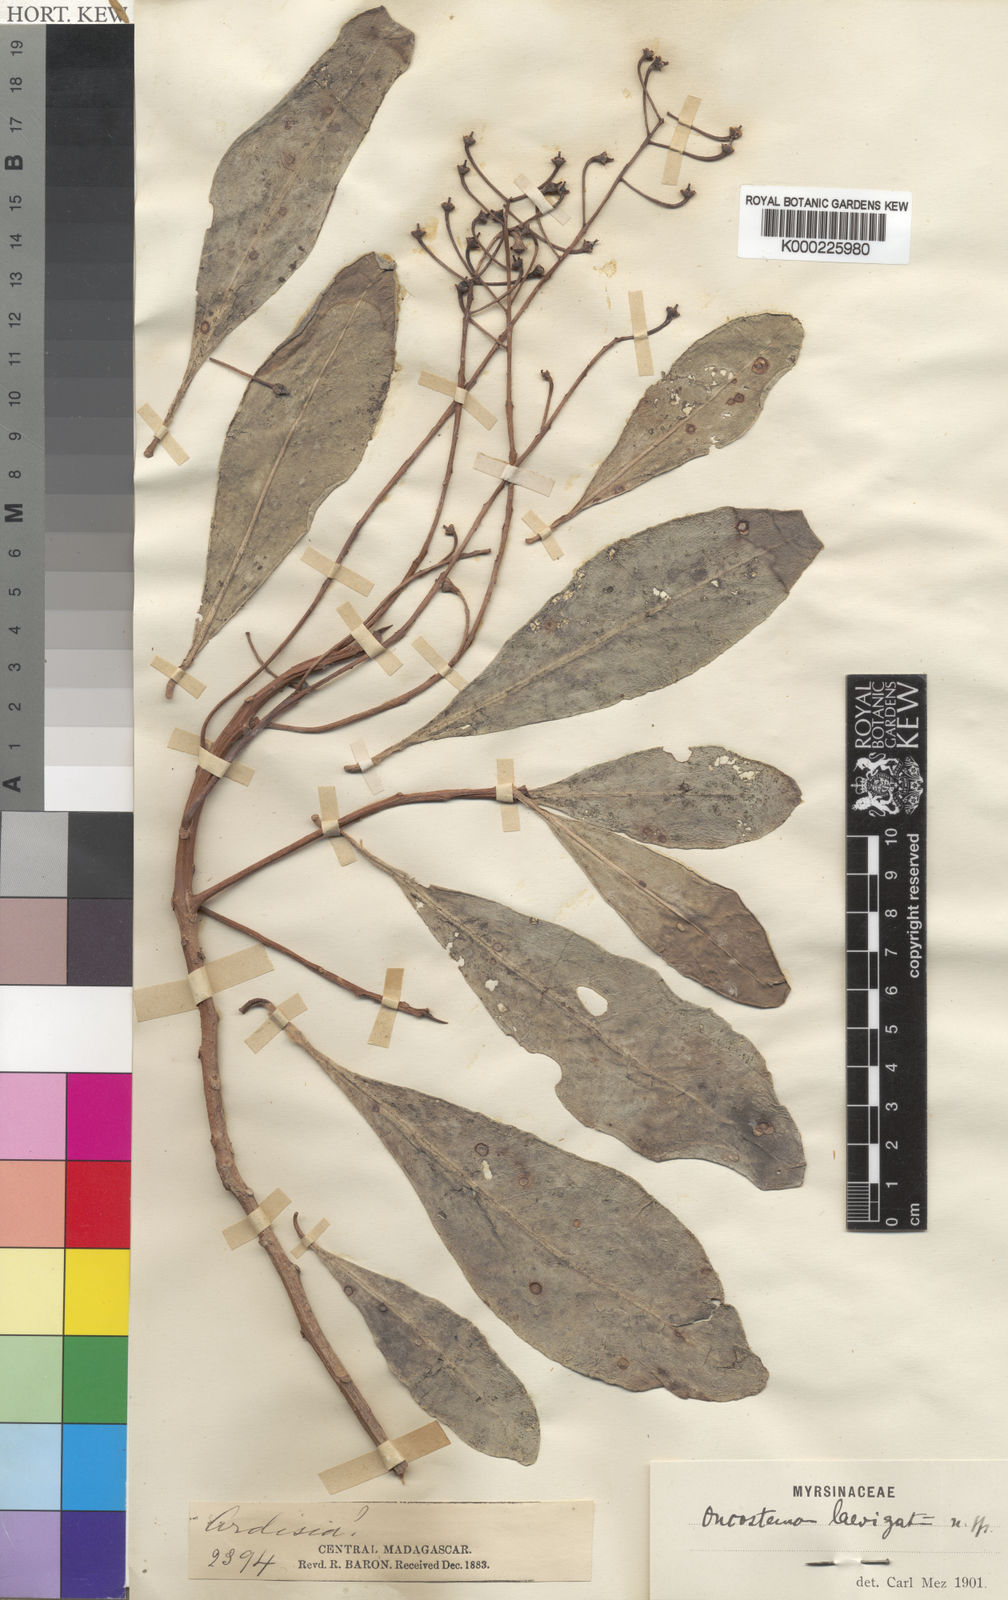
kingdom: Plantae
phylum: Tracheophyta
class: Magnoliopsida
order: Ericales
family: Primulaceae
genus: Oncostemum
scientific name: Oncostemum laevigatum
